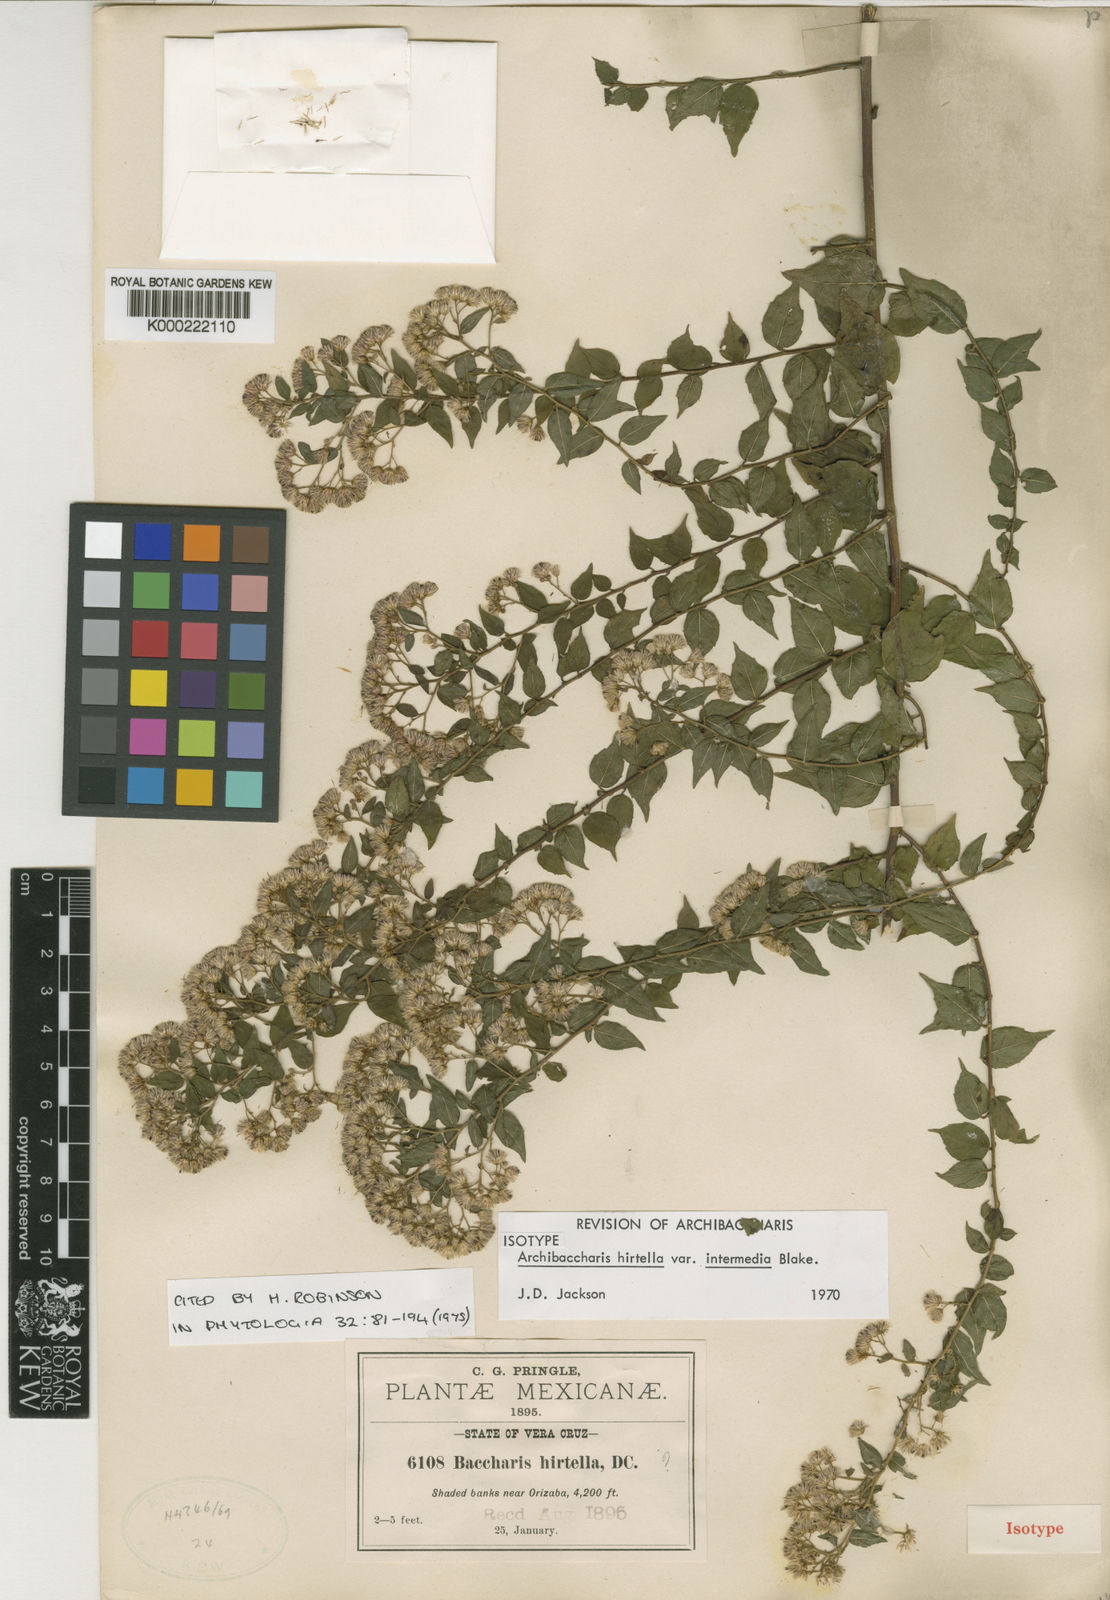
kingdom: Plantae
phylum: Tracheophyta
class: Magnoliopsida
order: Asterales
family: Asteraceae
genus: Archibaccharis
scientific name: Archibaccharis intermedia
